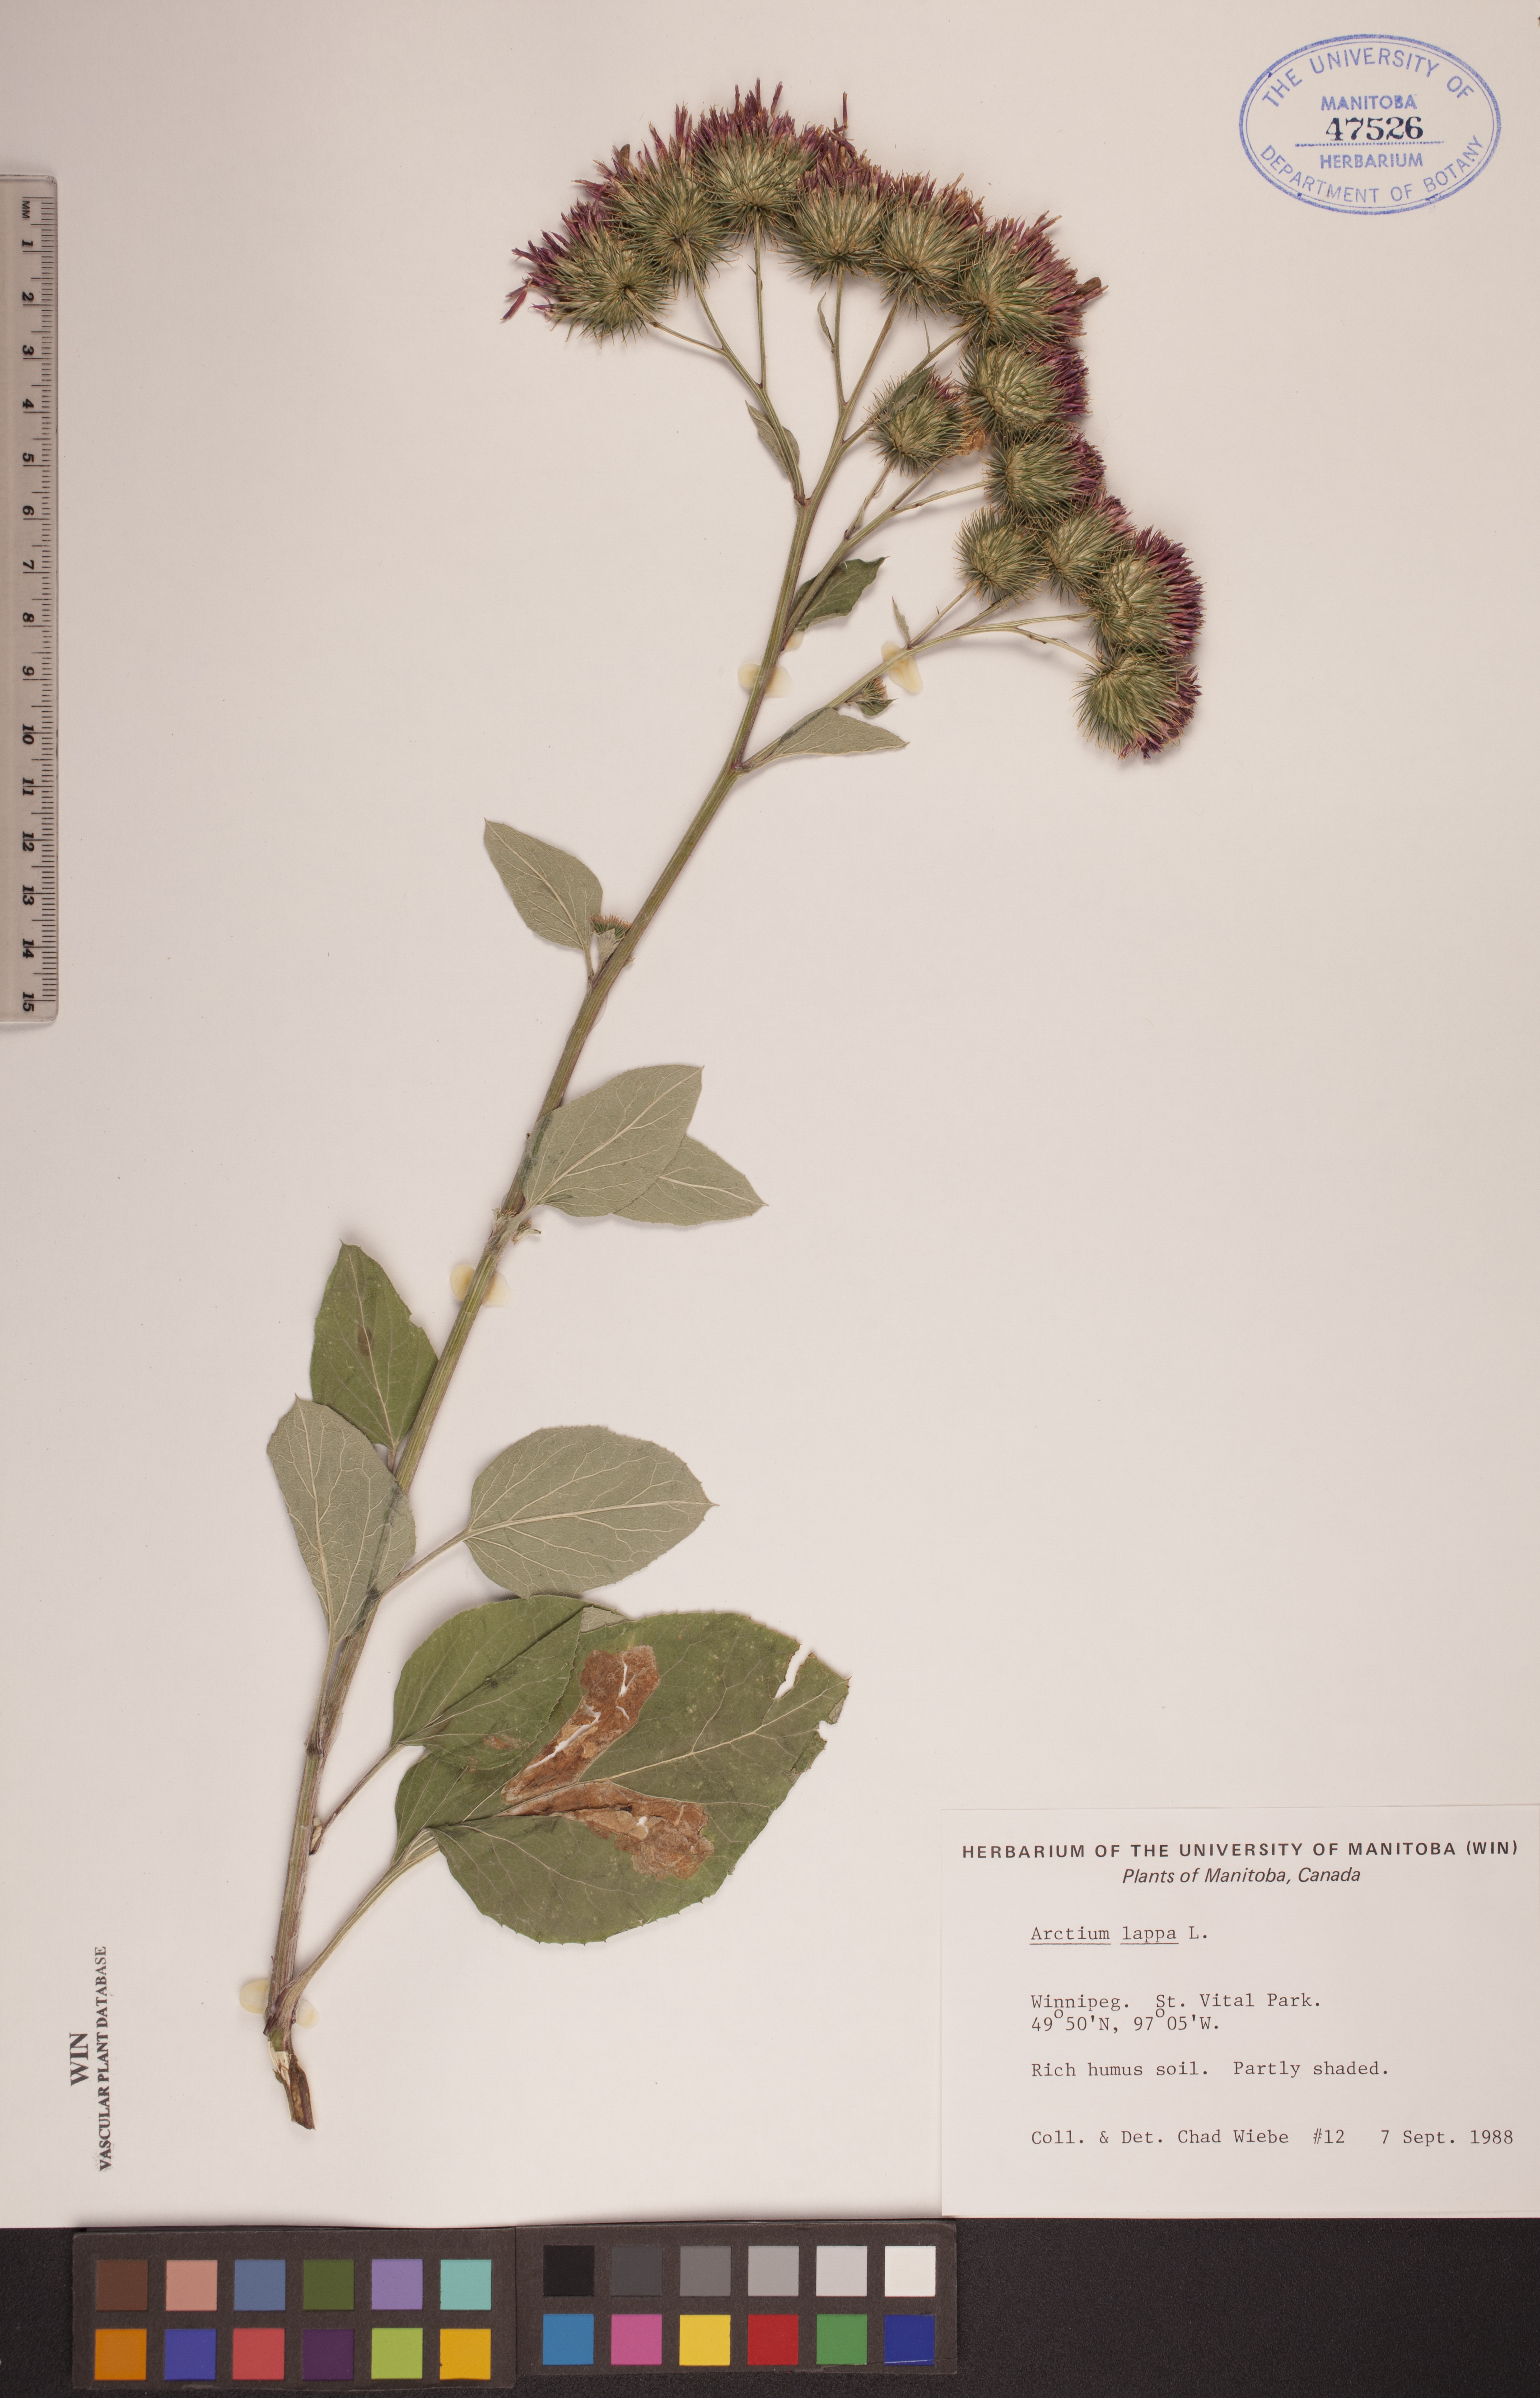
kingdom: Plantae
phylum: Tracheophyta
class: Magnoliopsida
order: Asterales
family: Asteraceae
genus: Arctium
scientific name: Arctium lappa
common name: Greater burdock
